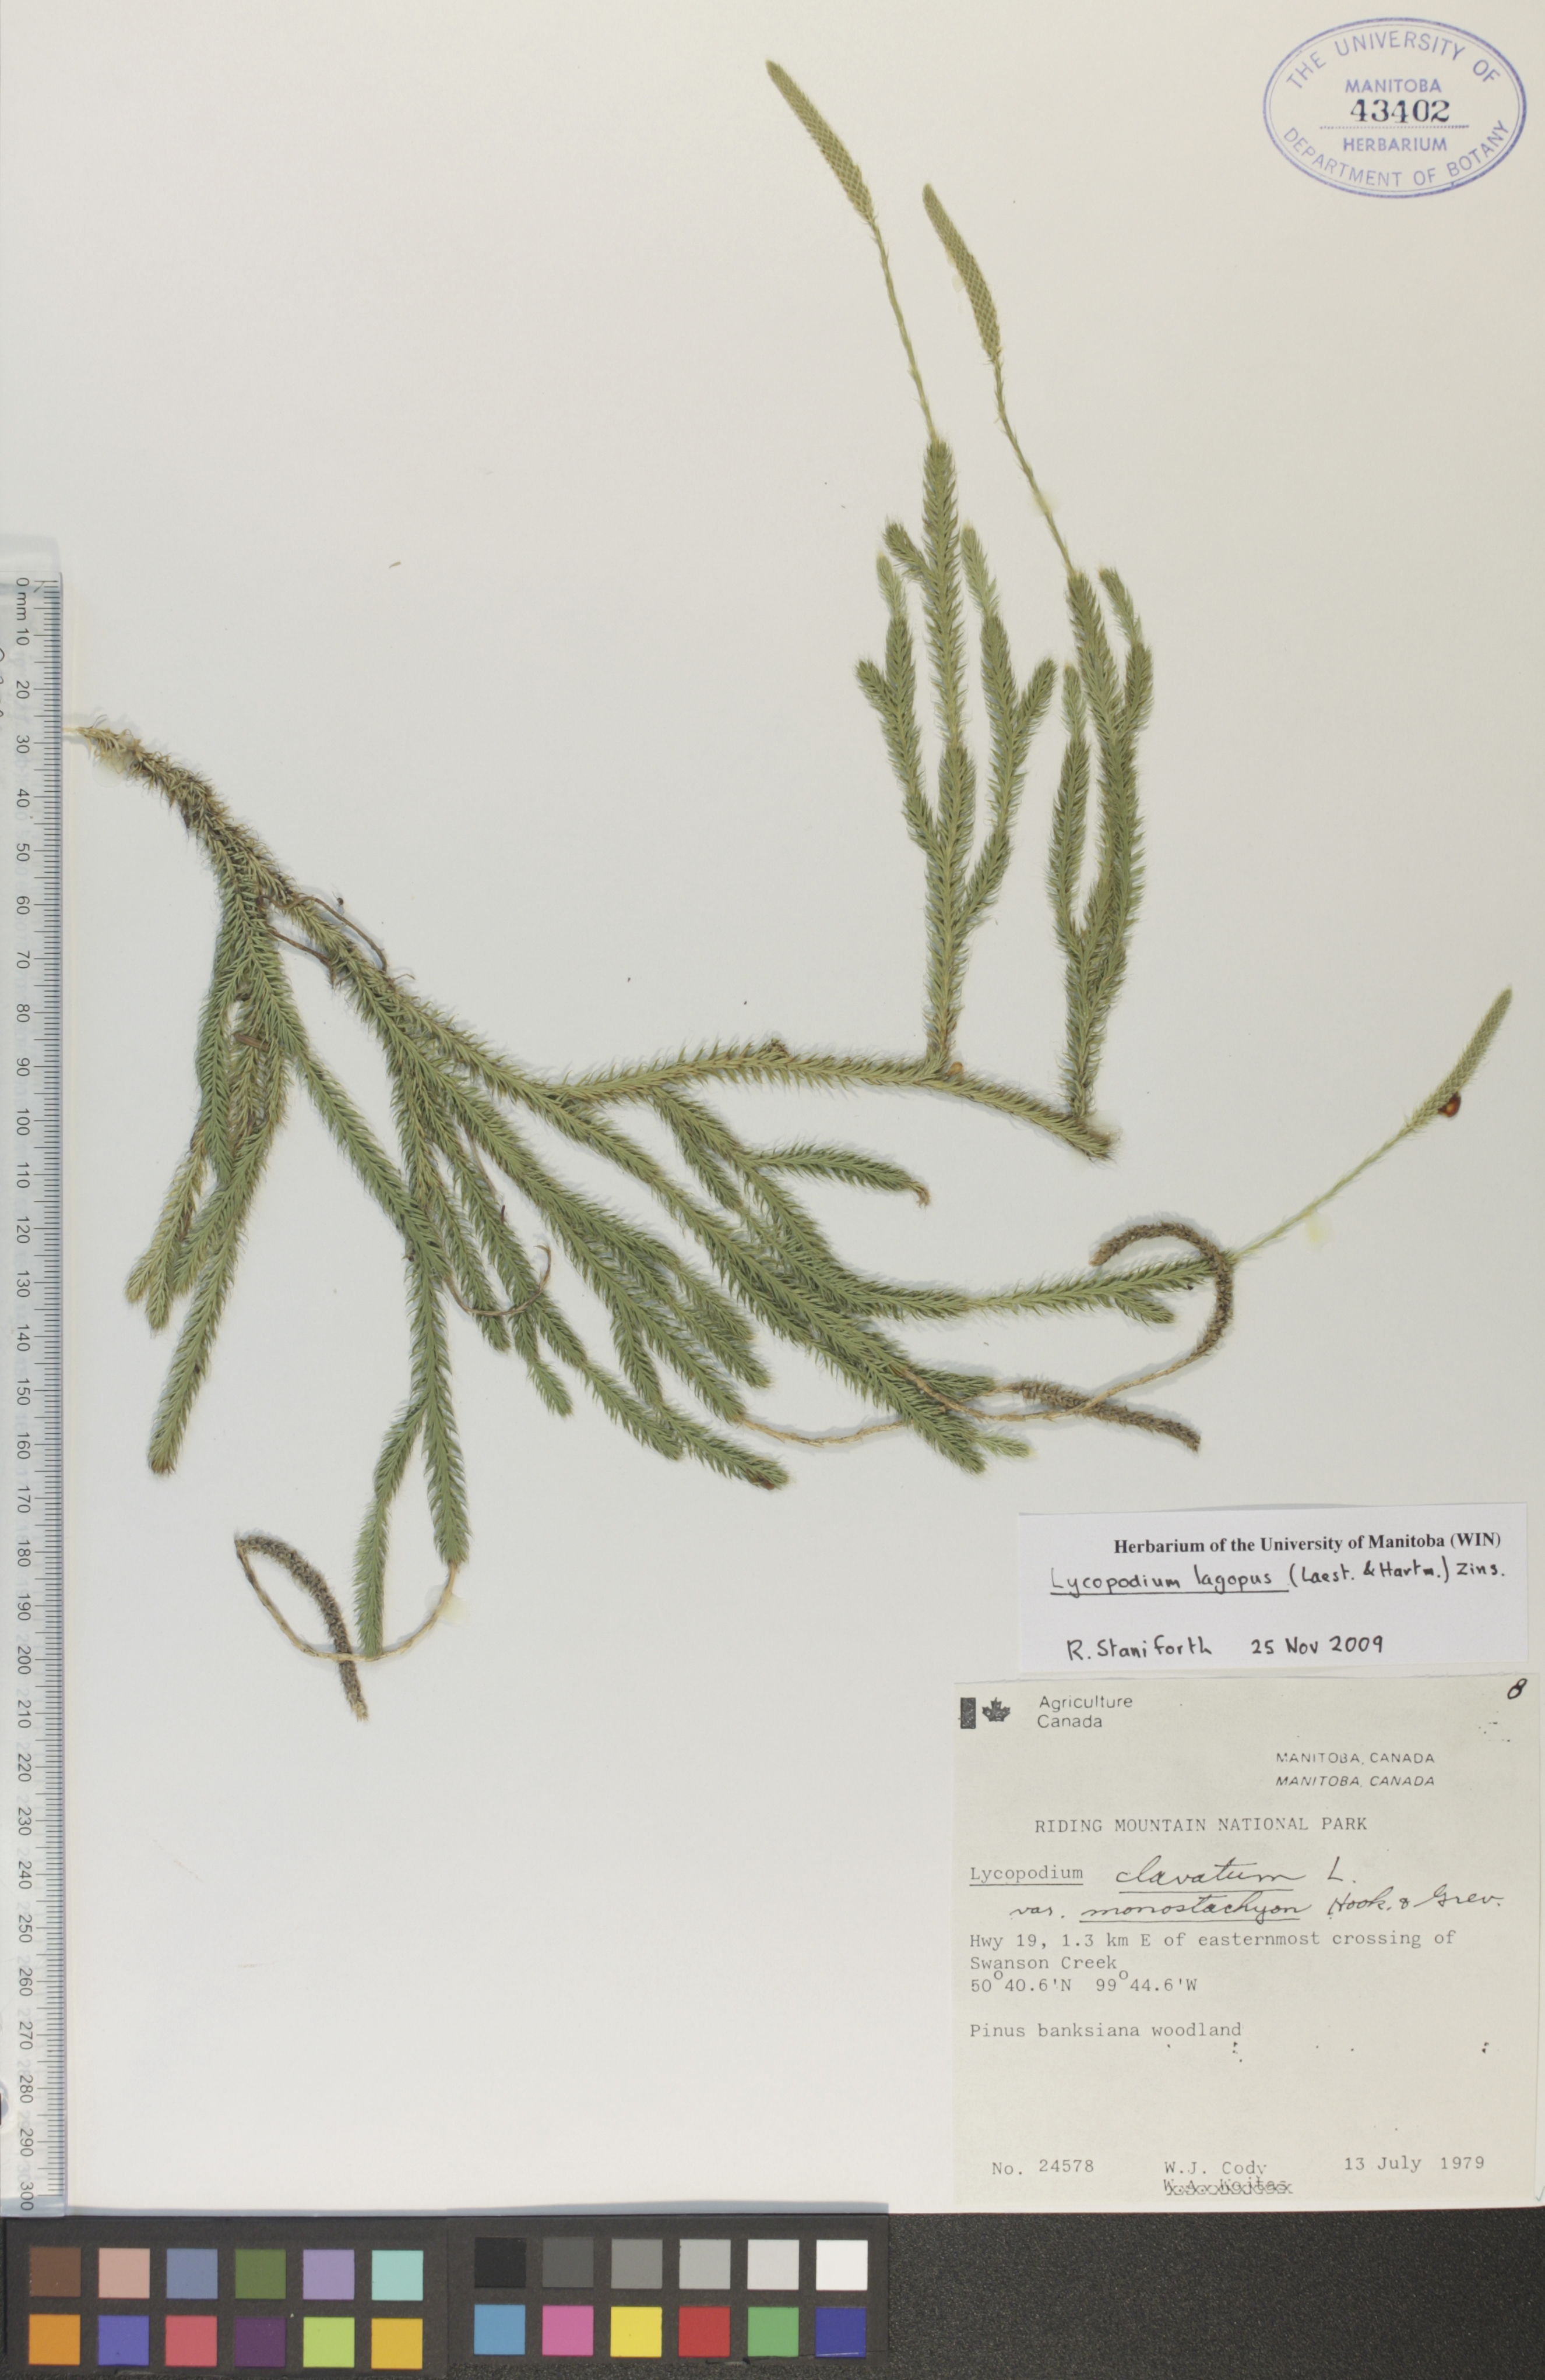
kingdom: Plantae
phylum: Tracheophyta
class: Lycopodiopsida
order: Lycopodiales
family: Lycopodiaceae
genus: Lycopodium
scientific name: Lycopodium lagopus
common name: One-cone clubmoss
